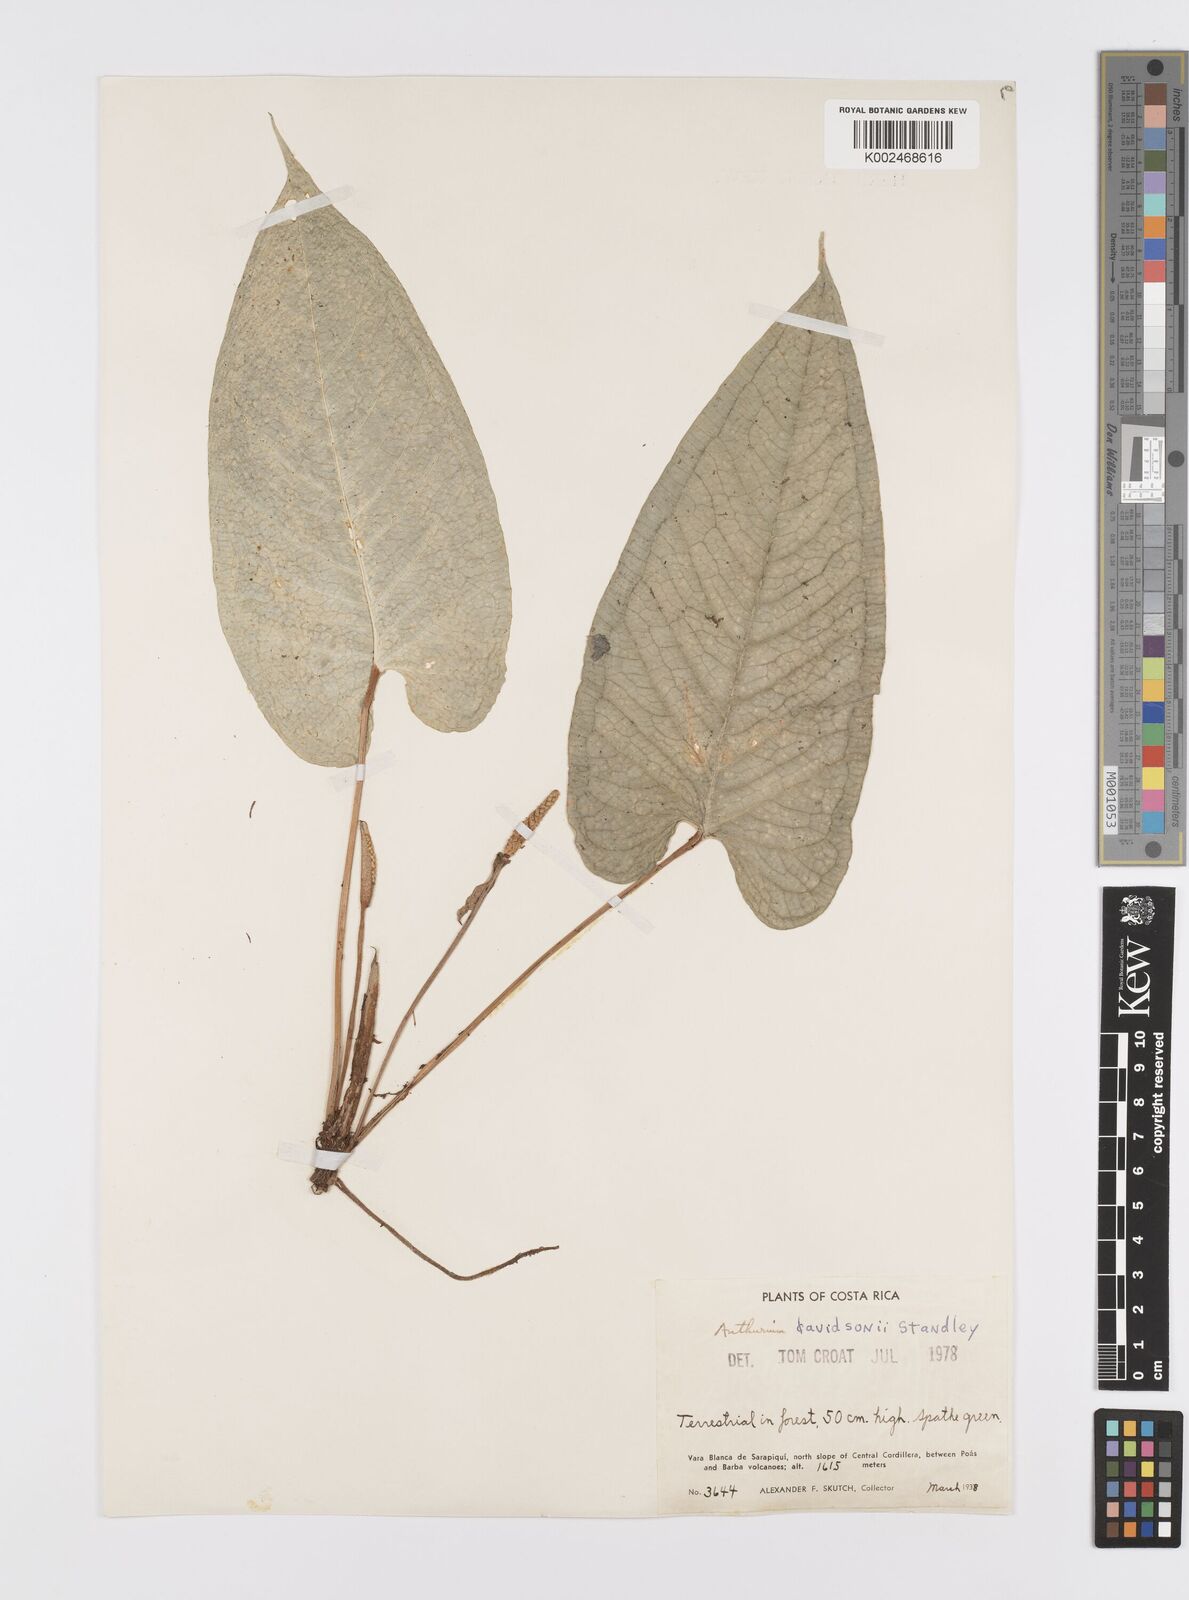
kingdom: Plantae
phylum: Tracheophyta
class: Liliopsida
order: Alismatales
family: Araceae
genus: Anthurium
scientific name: Anthurium davidsoniae
